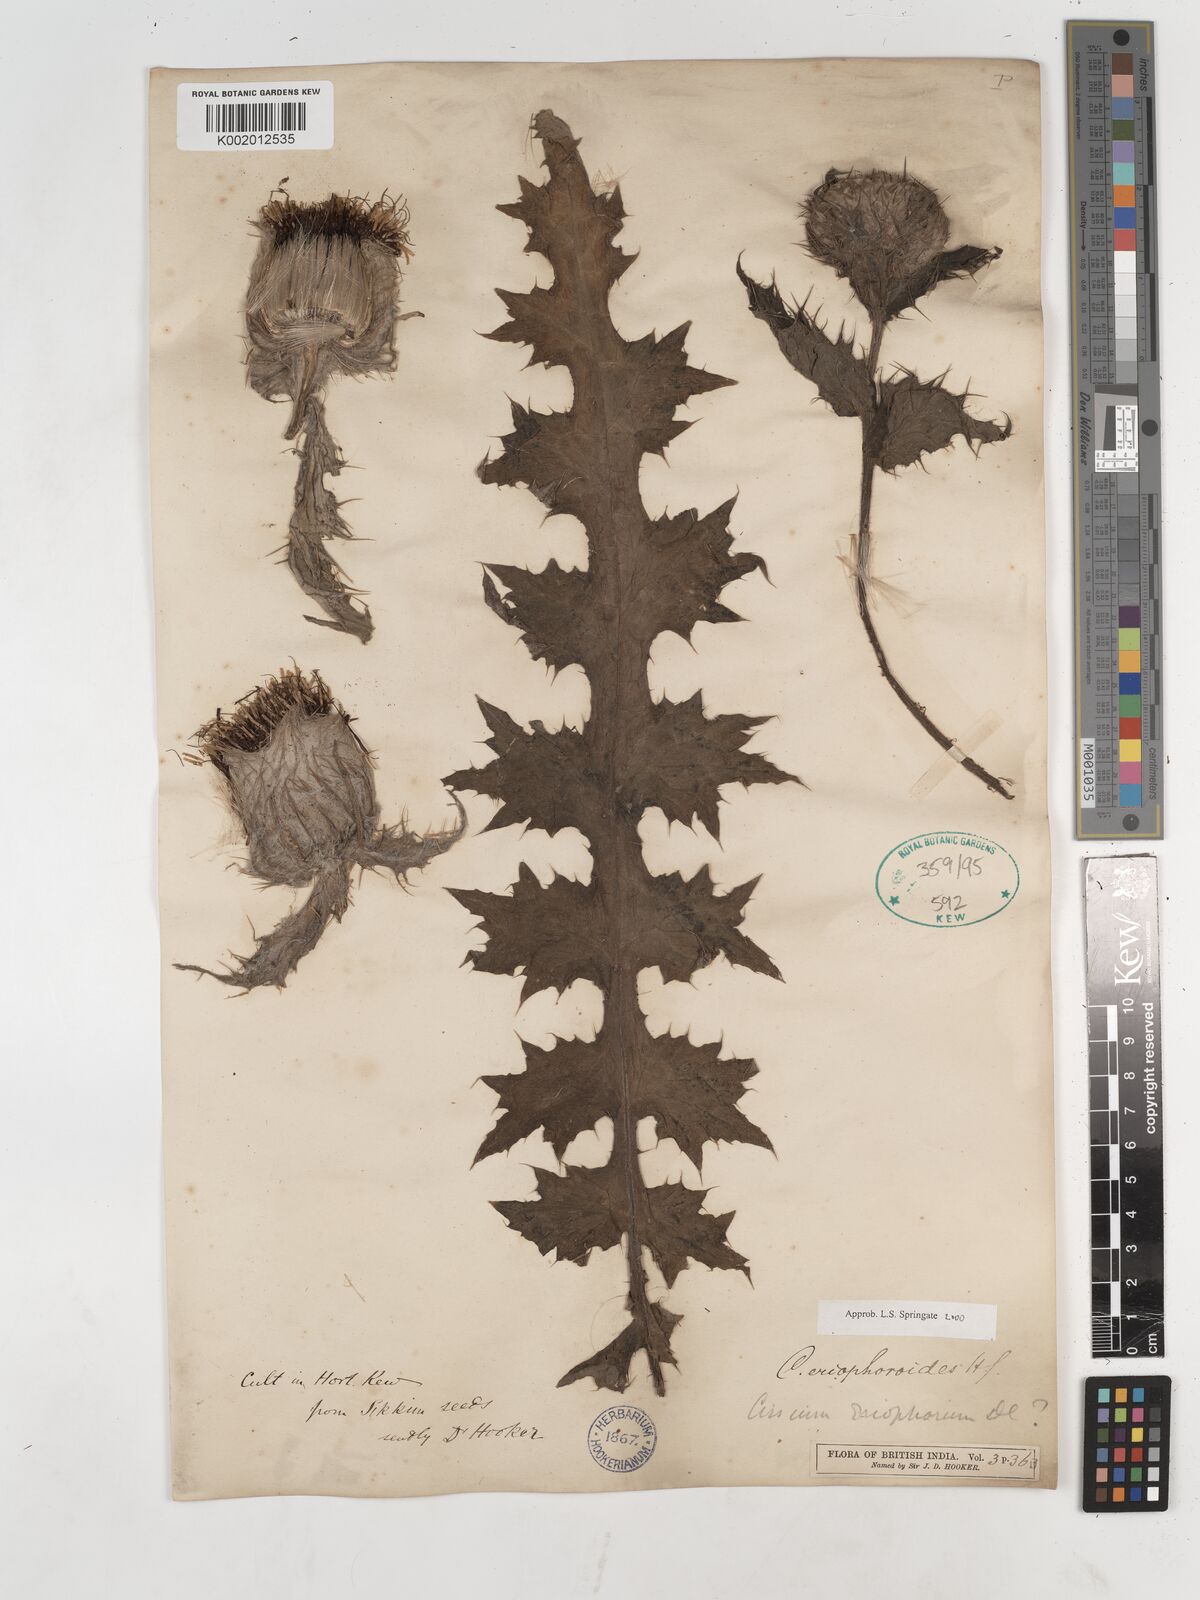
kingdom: Plantae
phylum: Tracheophyta
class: Magnoliopsida
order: Asterales
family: Asteraceae
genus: Cirsium
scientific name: Cirsium eriophoroides
